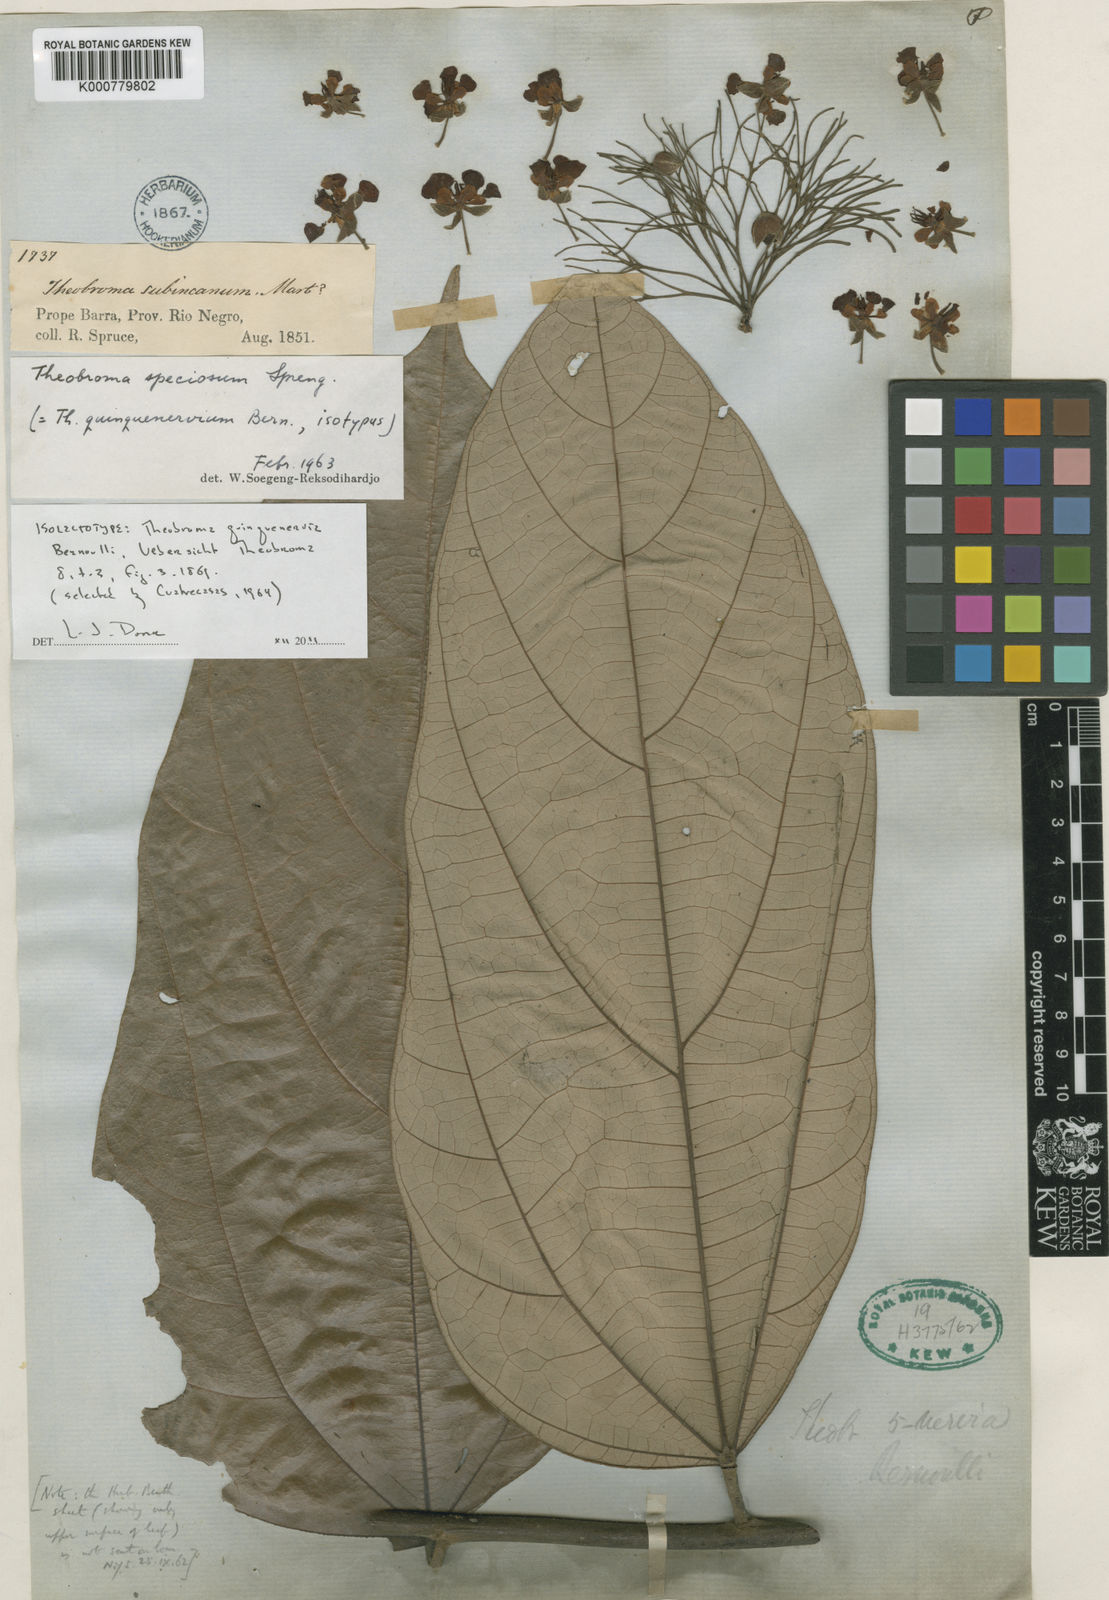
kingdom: Plantae
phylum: Tracheophyta
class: Magnoliopsida
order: Malvales
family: Malvaceae
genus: Theobroma
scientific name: Theobroma speciosum
